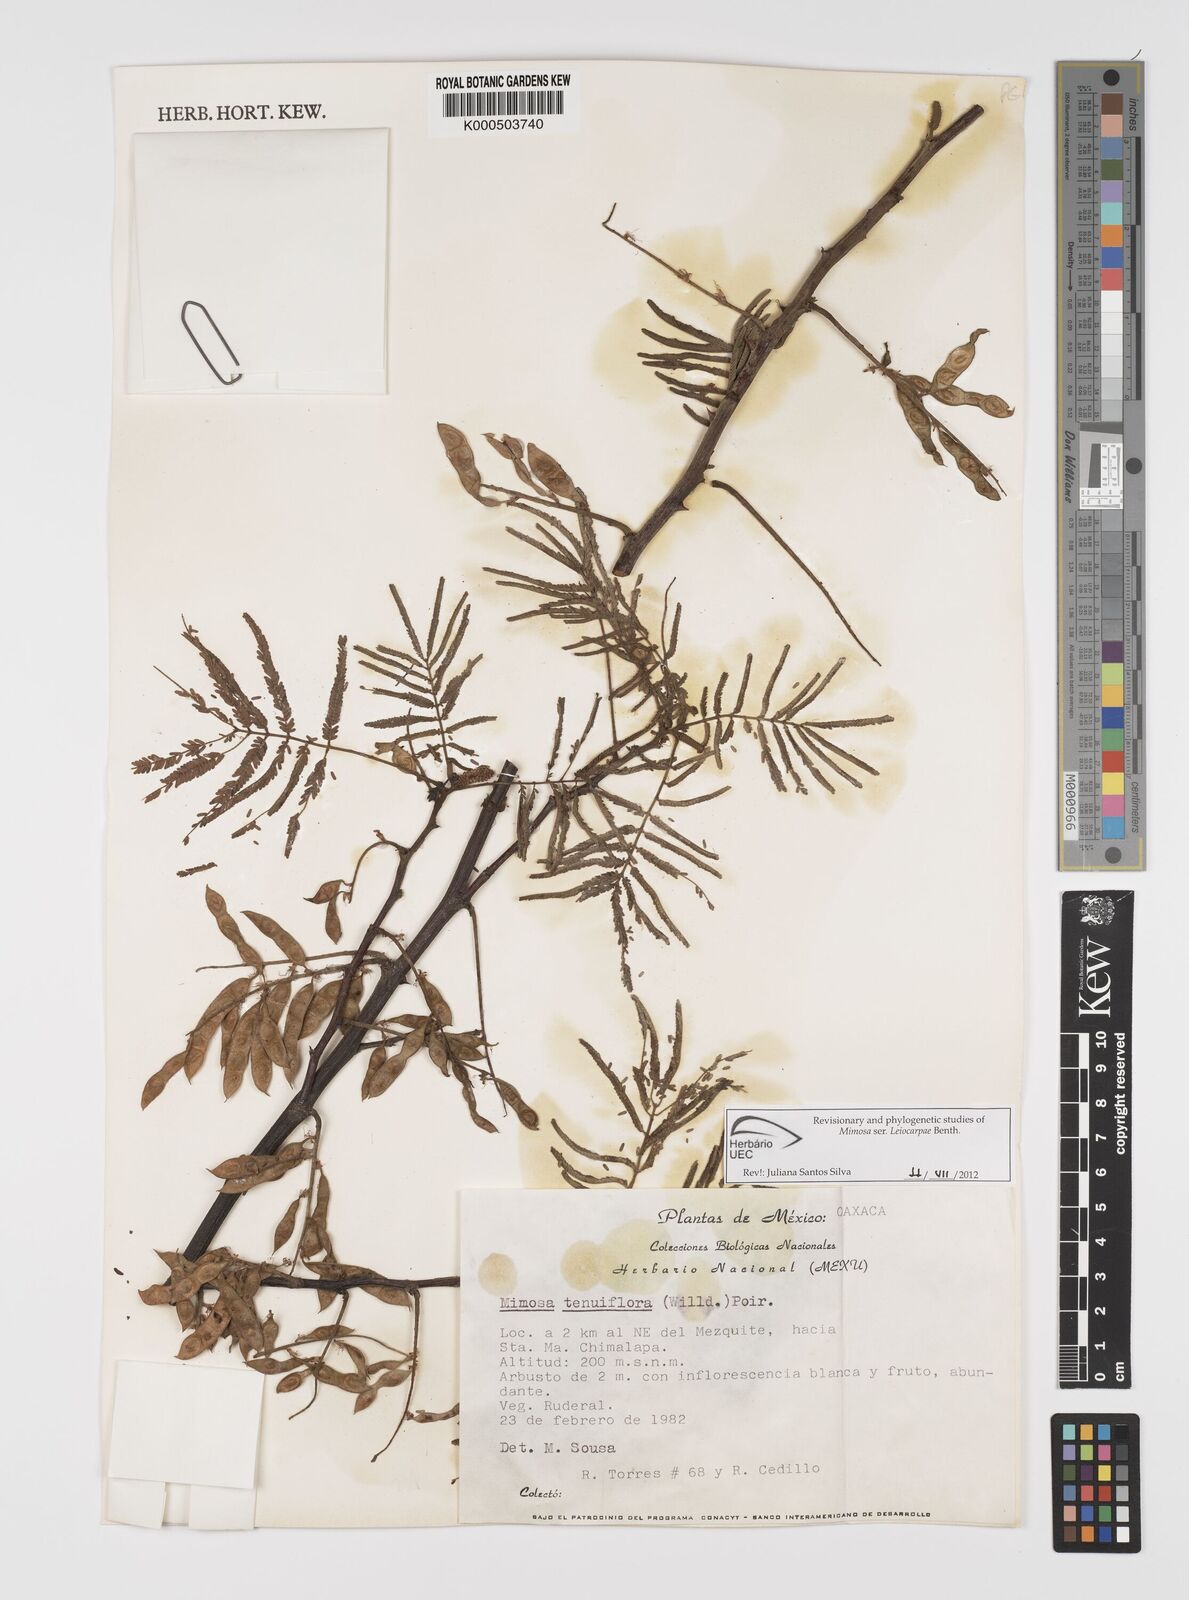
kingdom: Plantae
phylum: Tracheophyta
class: Magnoliopsida
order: Fabales
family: Fabaceae
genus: Mimosa
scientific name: Mimosa tenuiflora
